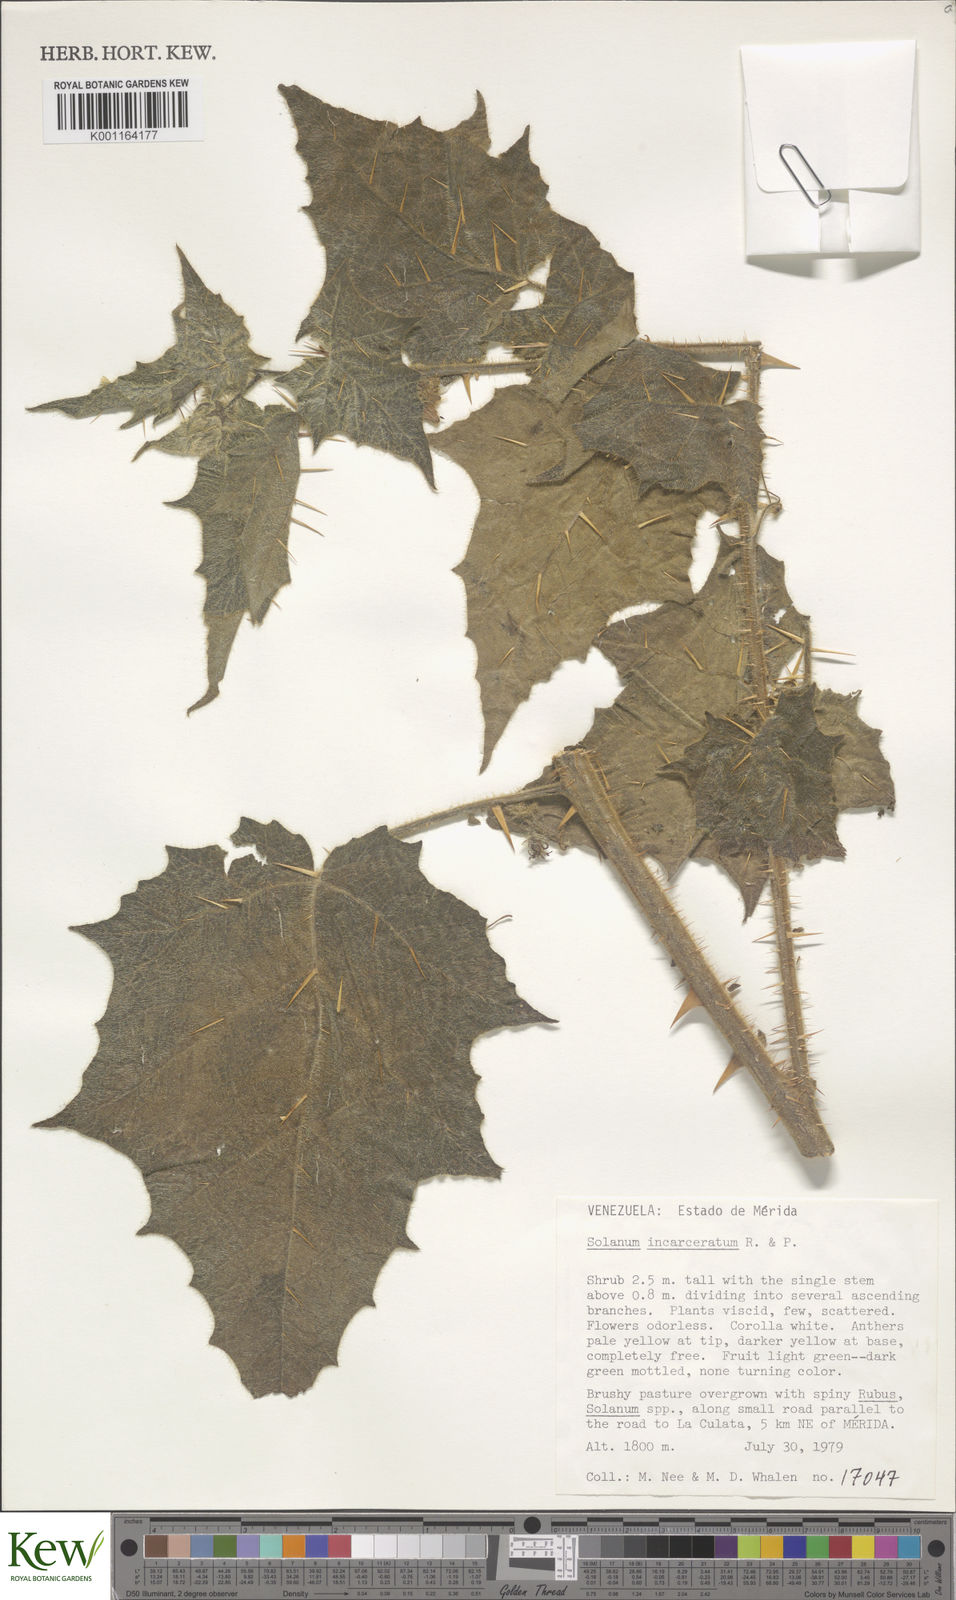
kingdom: Plantae
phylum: Tracheophyta
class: Magnoliopsida
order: Solanales
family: Solanaceae
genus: Solanum
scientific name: Solanum incarceratum
